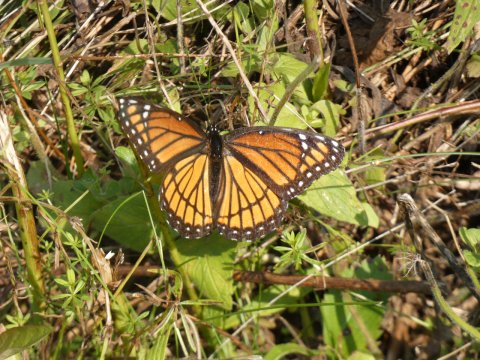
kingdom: Animalia
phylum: Arthropoda
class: Insecta
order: Lepidoptera
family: Nymphalidae
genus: Limenitis
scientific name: Limenitis archippus
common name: Viceroy
